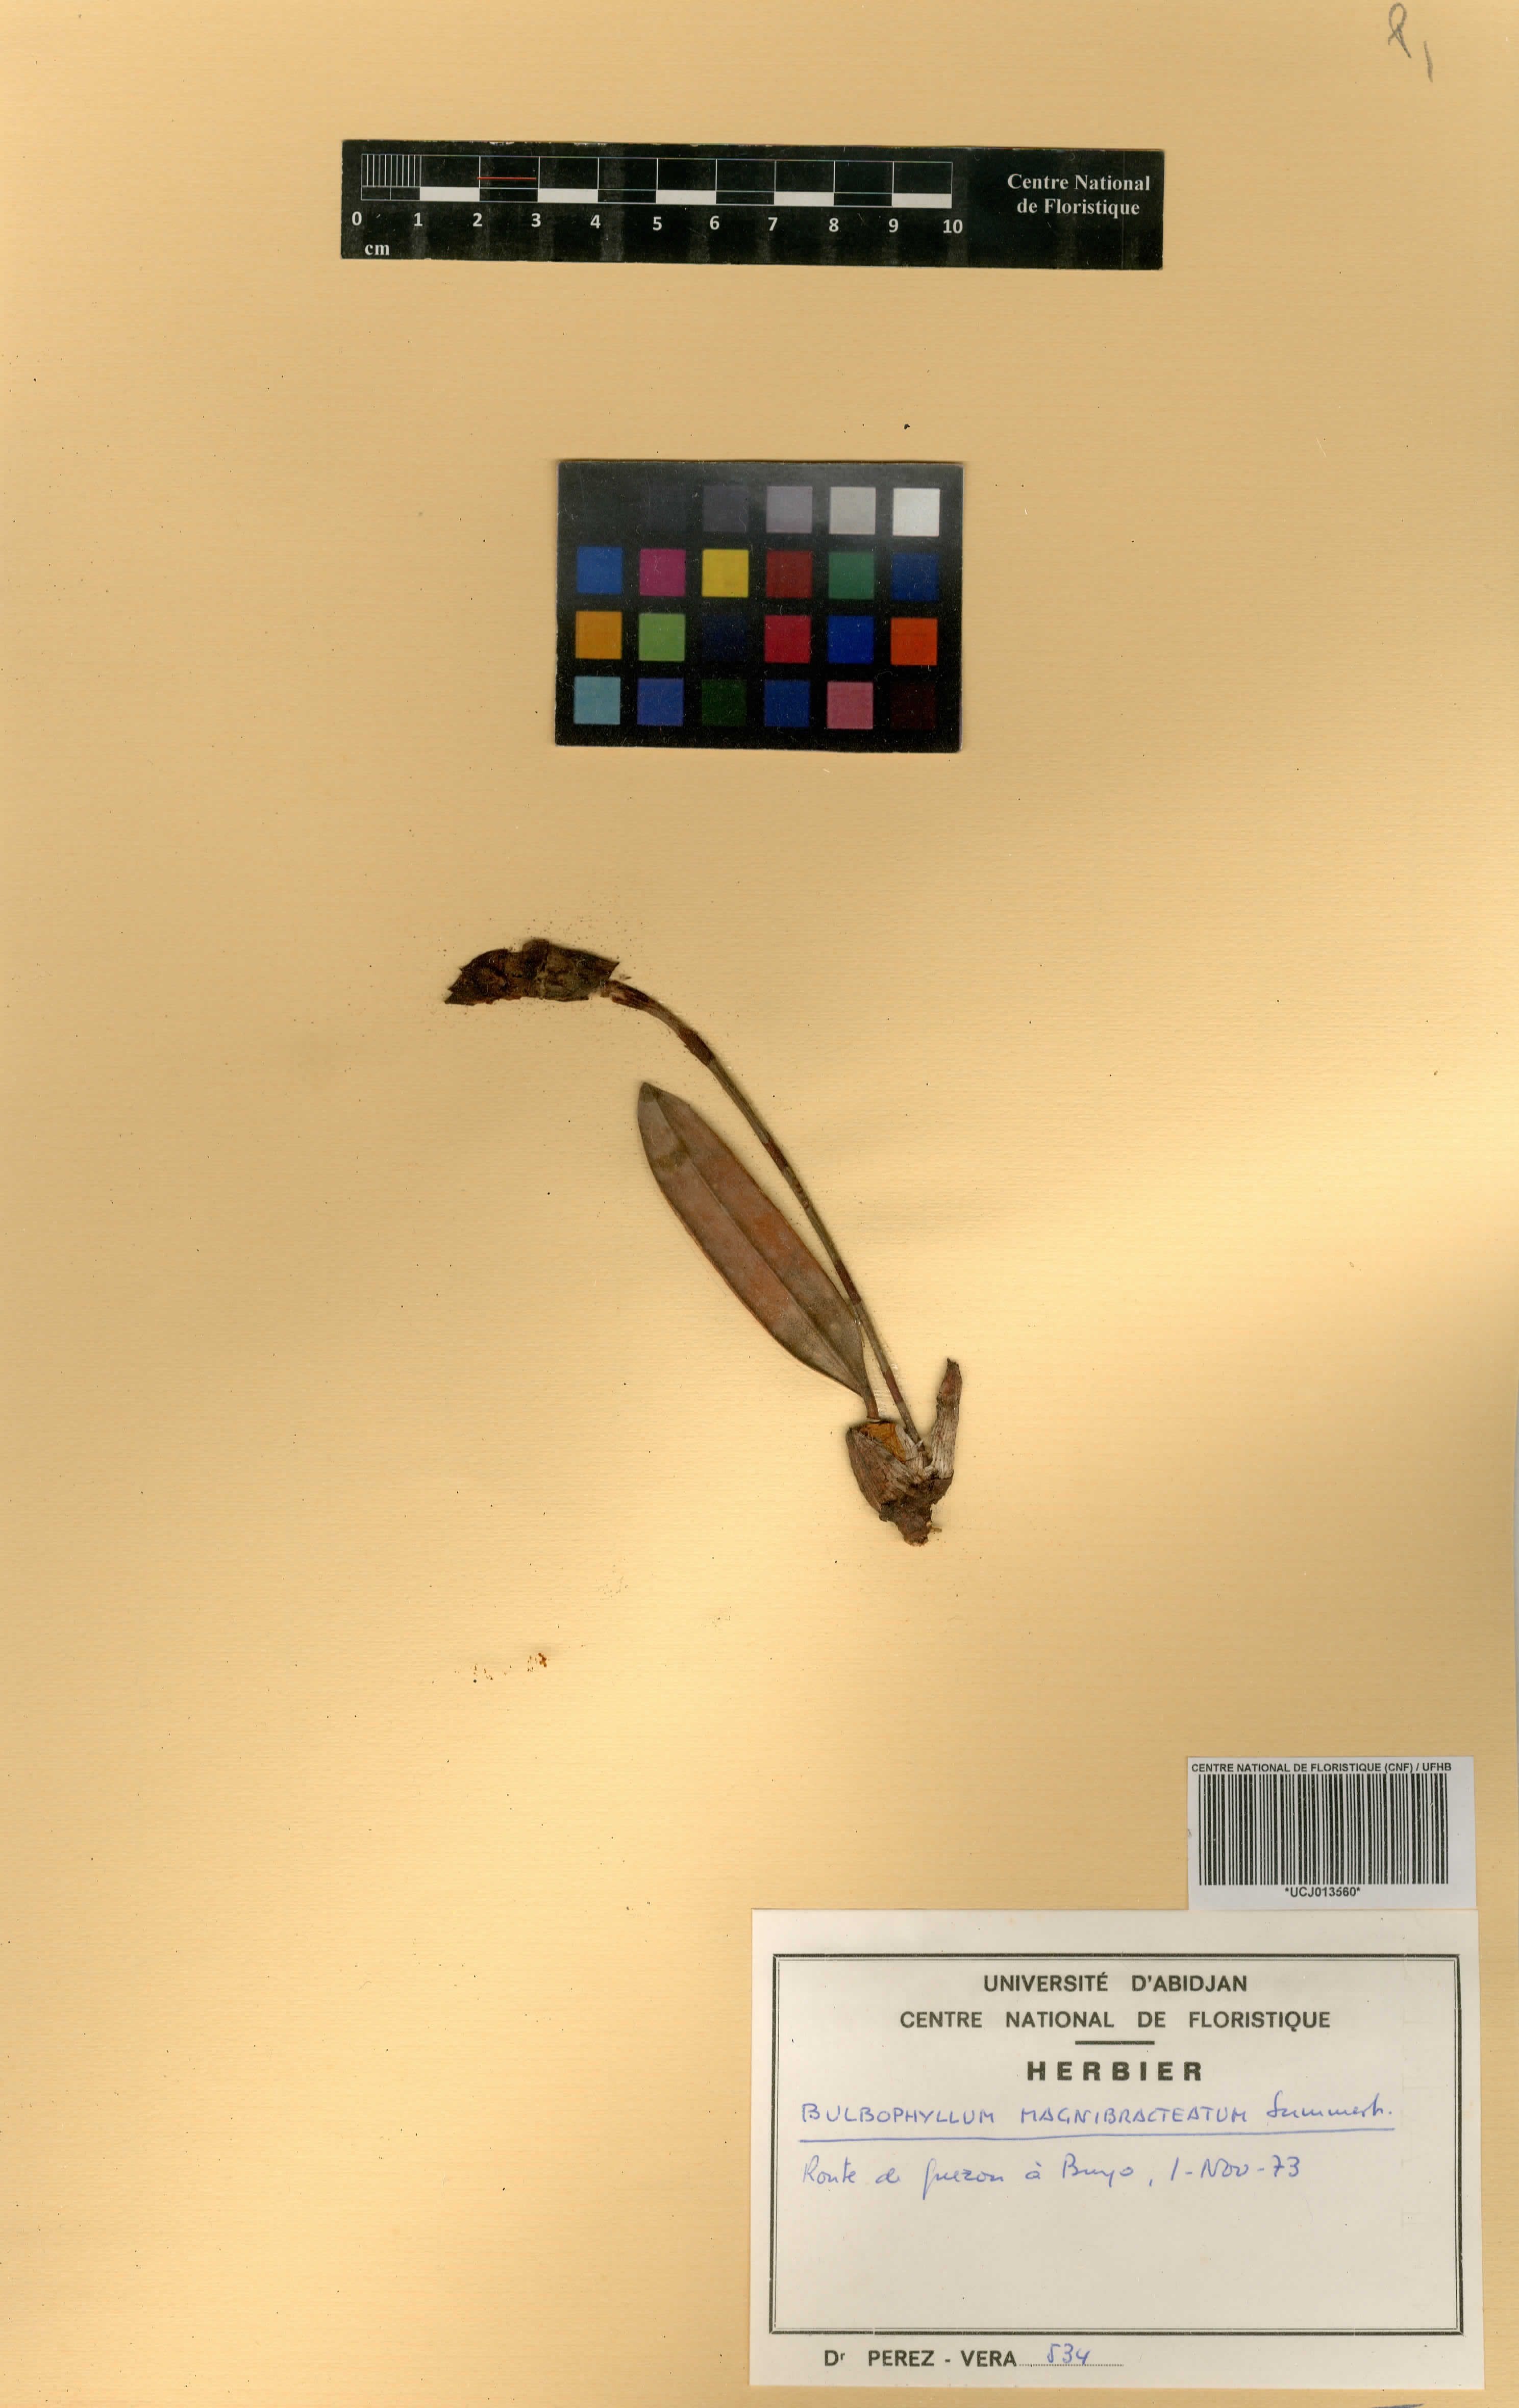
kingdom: Plantae
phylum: Tracheophyta
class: Liliopsida
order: Asparagales
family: Orchidaceae
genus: Bulbophyllum
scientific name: Bulbophyllum magnibracteatum
